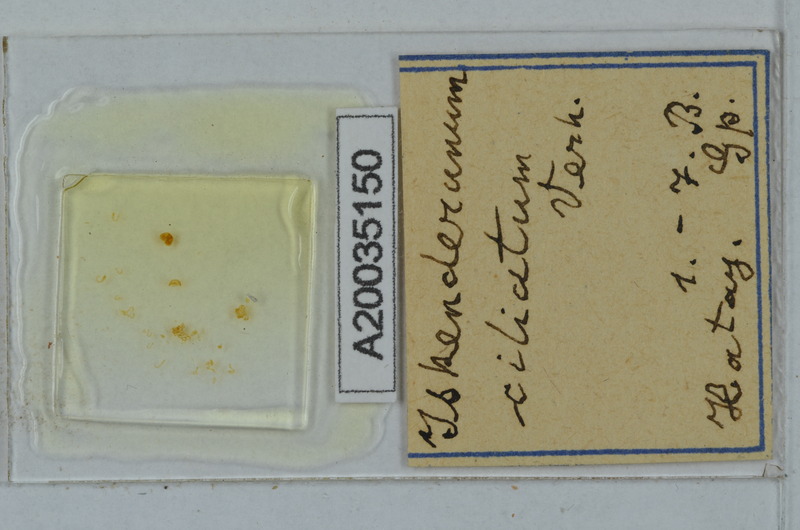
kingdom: Animalia
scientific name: Animalia
